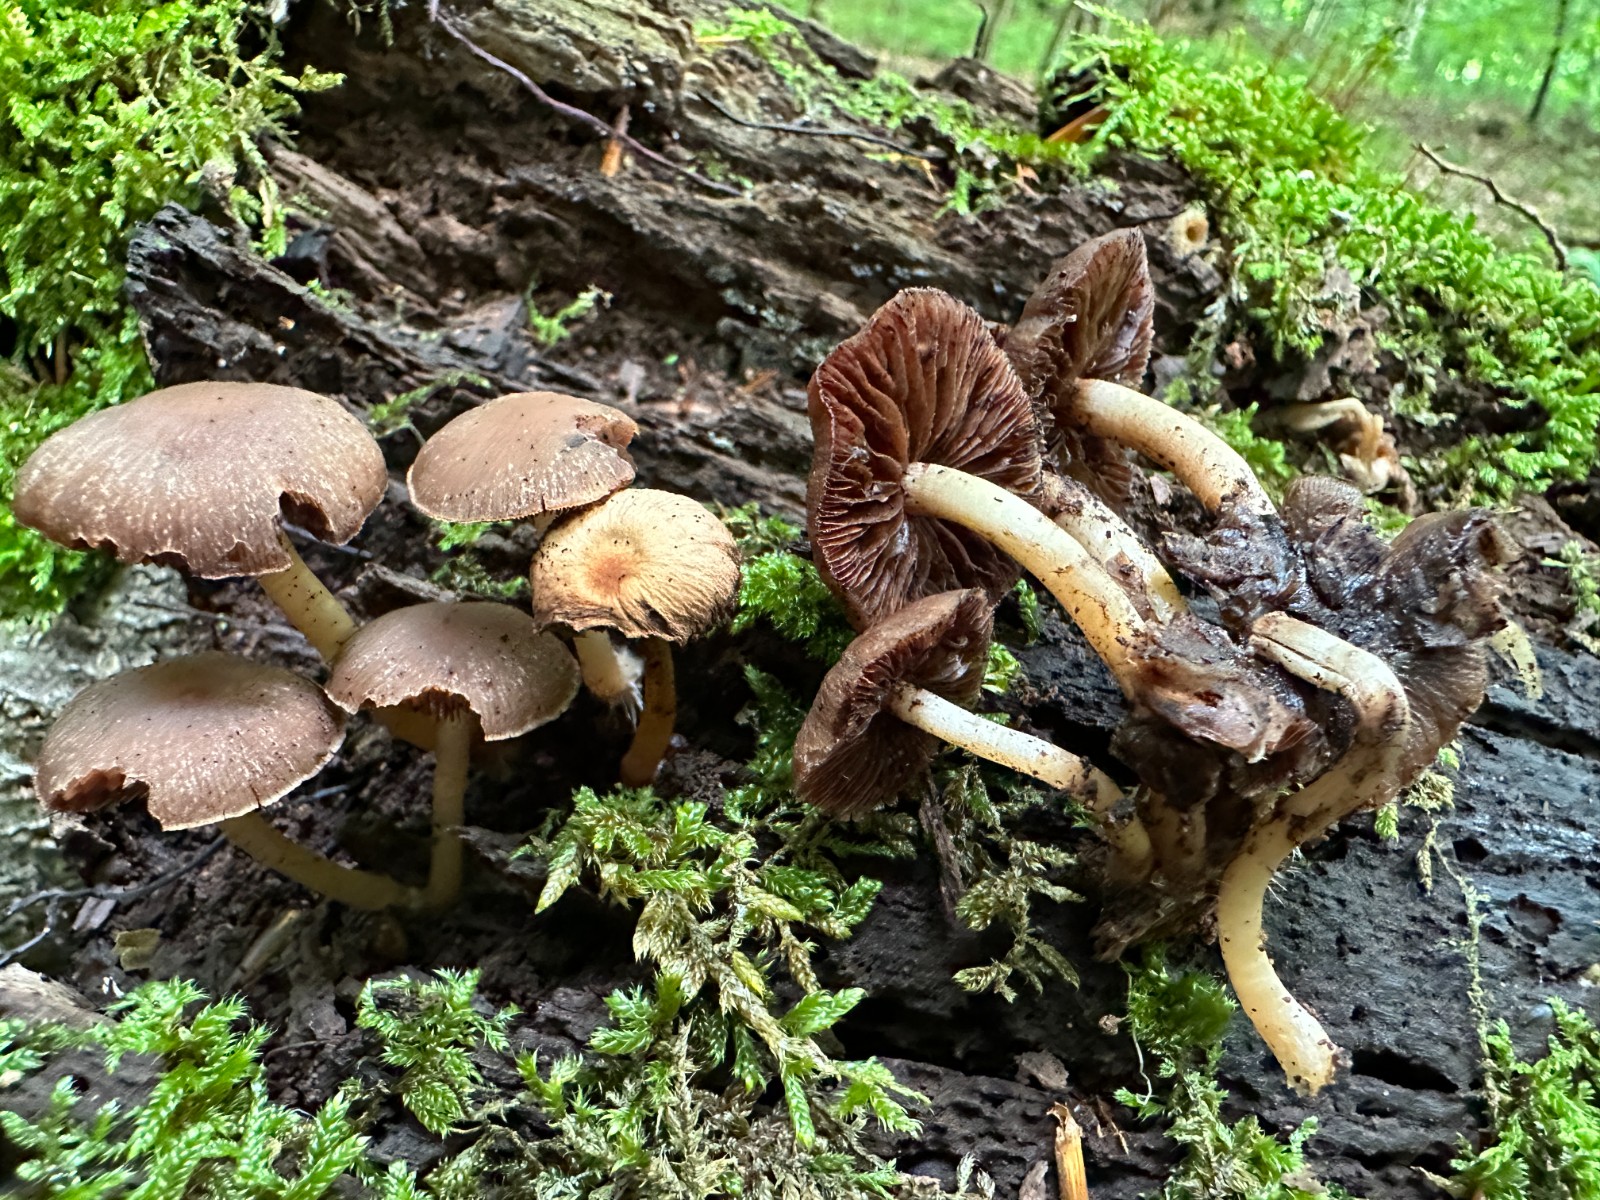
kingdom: Fungi
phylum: Basidiomycota
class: Agaricomycetes
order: Agaricales
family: Psathyrellaceae
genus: Psathyrella
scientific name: Psathyrella piluliformis
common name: lysstokket mørkhat
